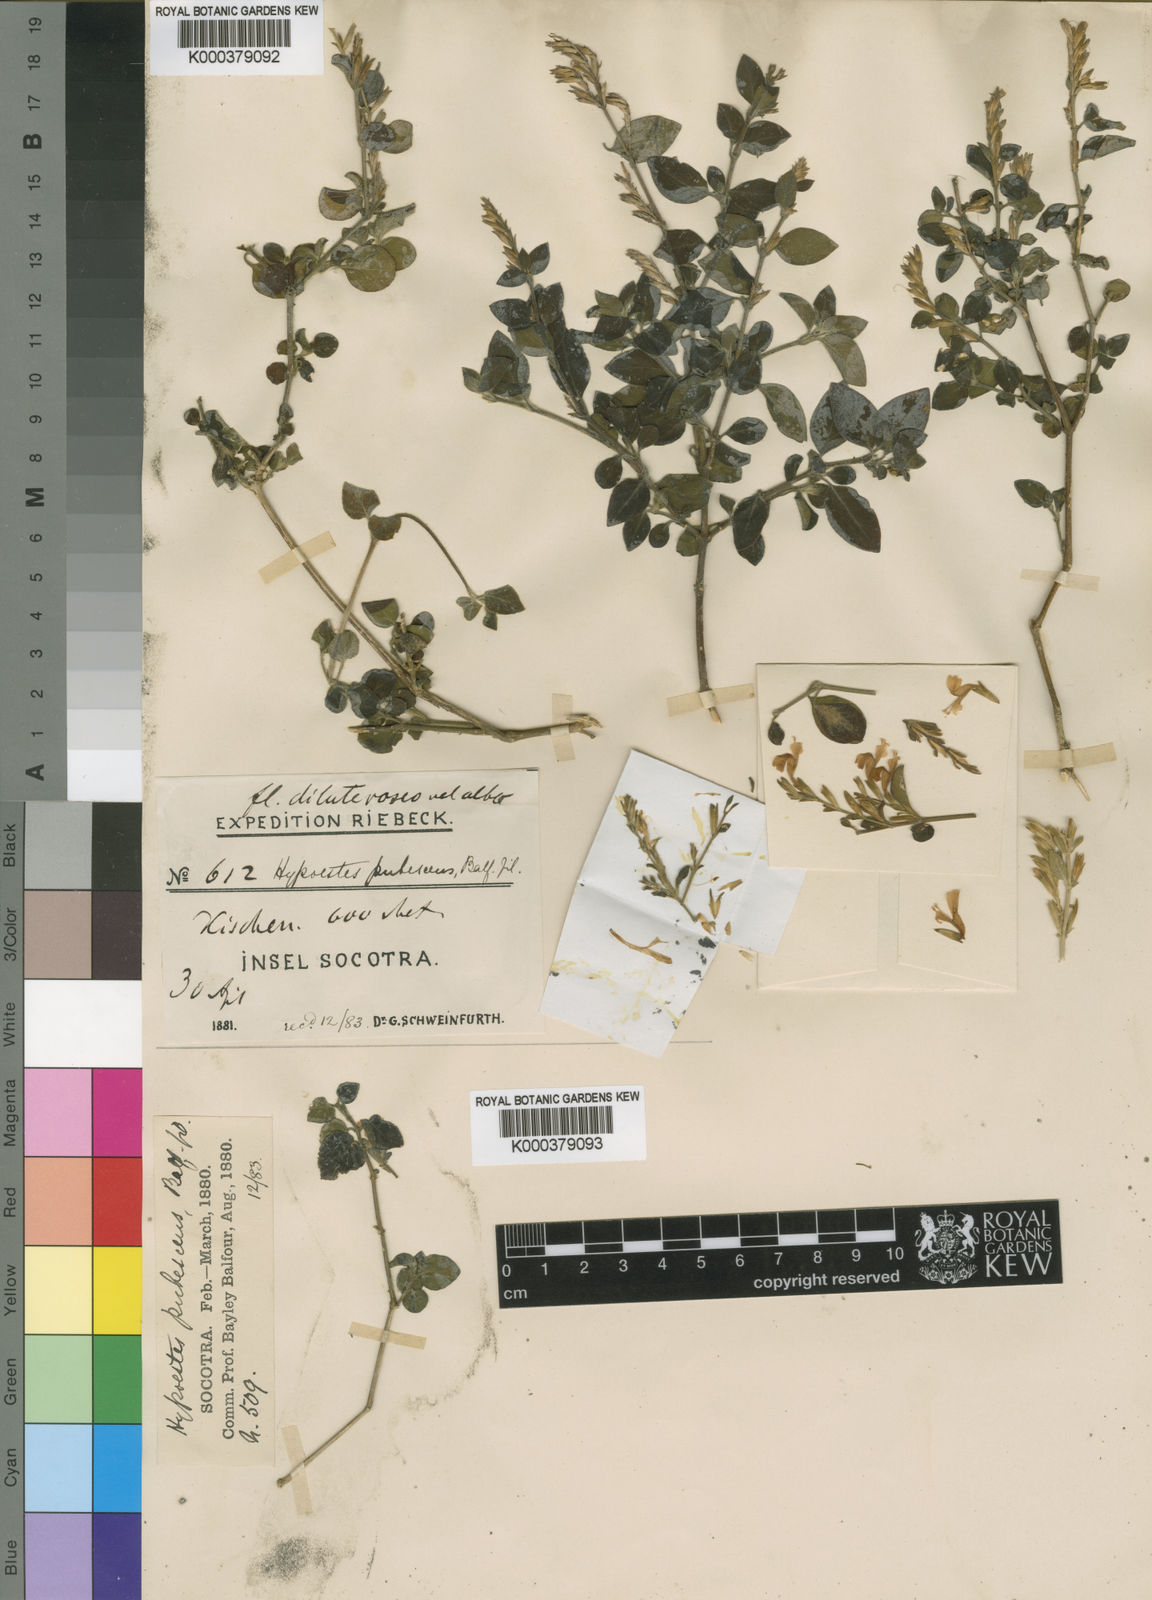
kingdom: Plantae
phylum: Tracheophyta
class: Magnoliopsida
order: Lamiales
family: Acanthaceae
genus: Hypoestes
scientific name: Hypoestes
